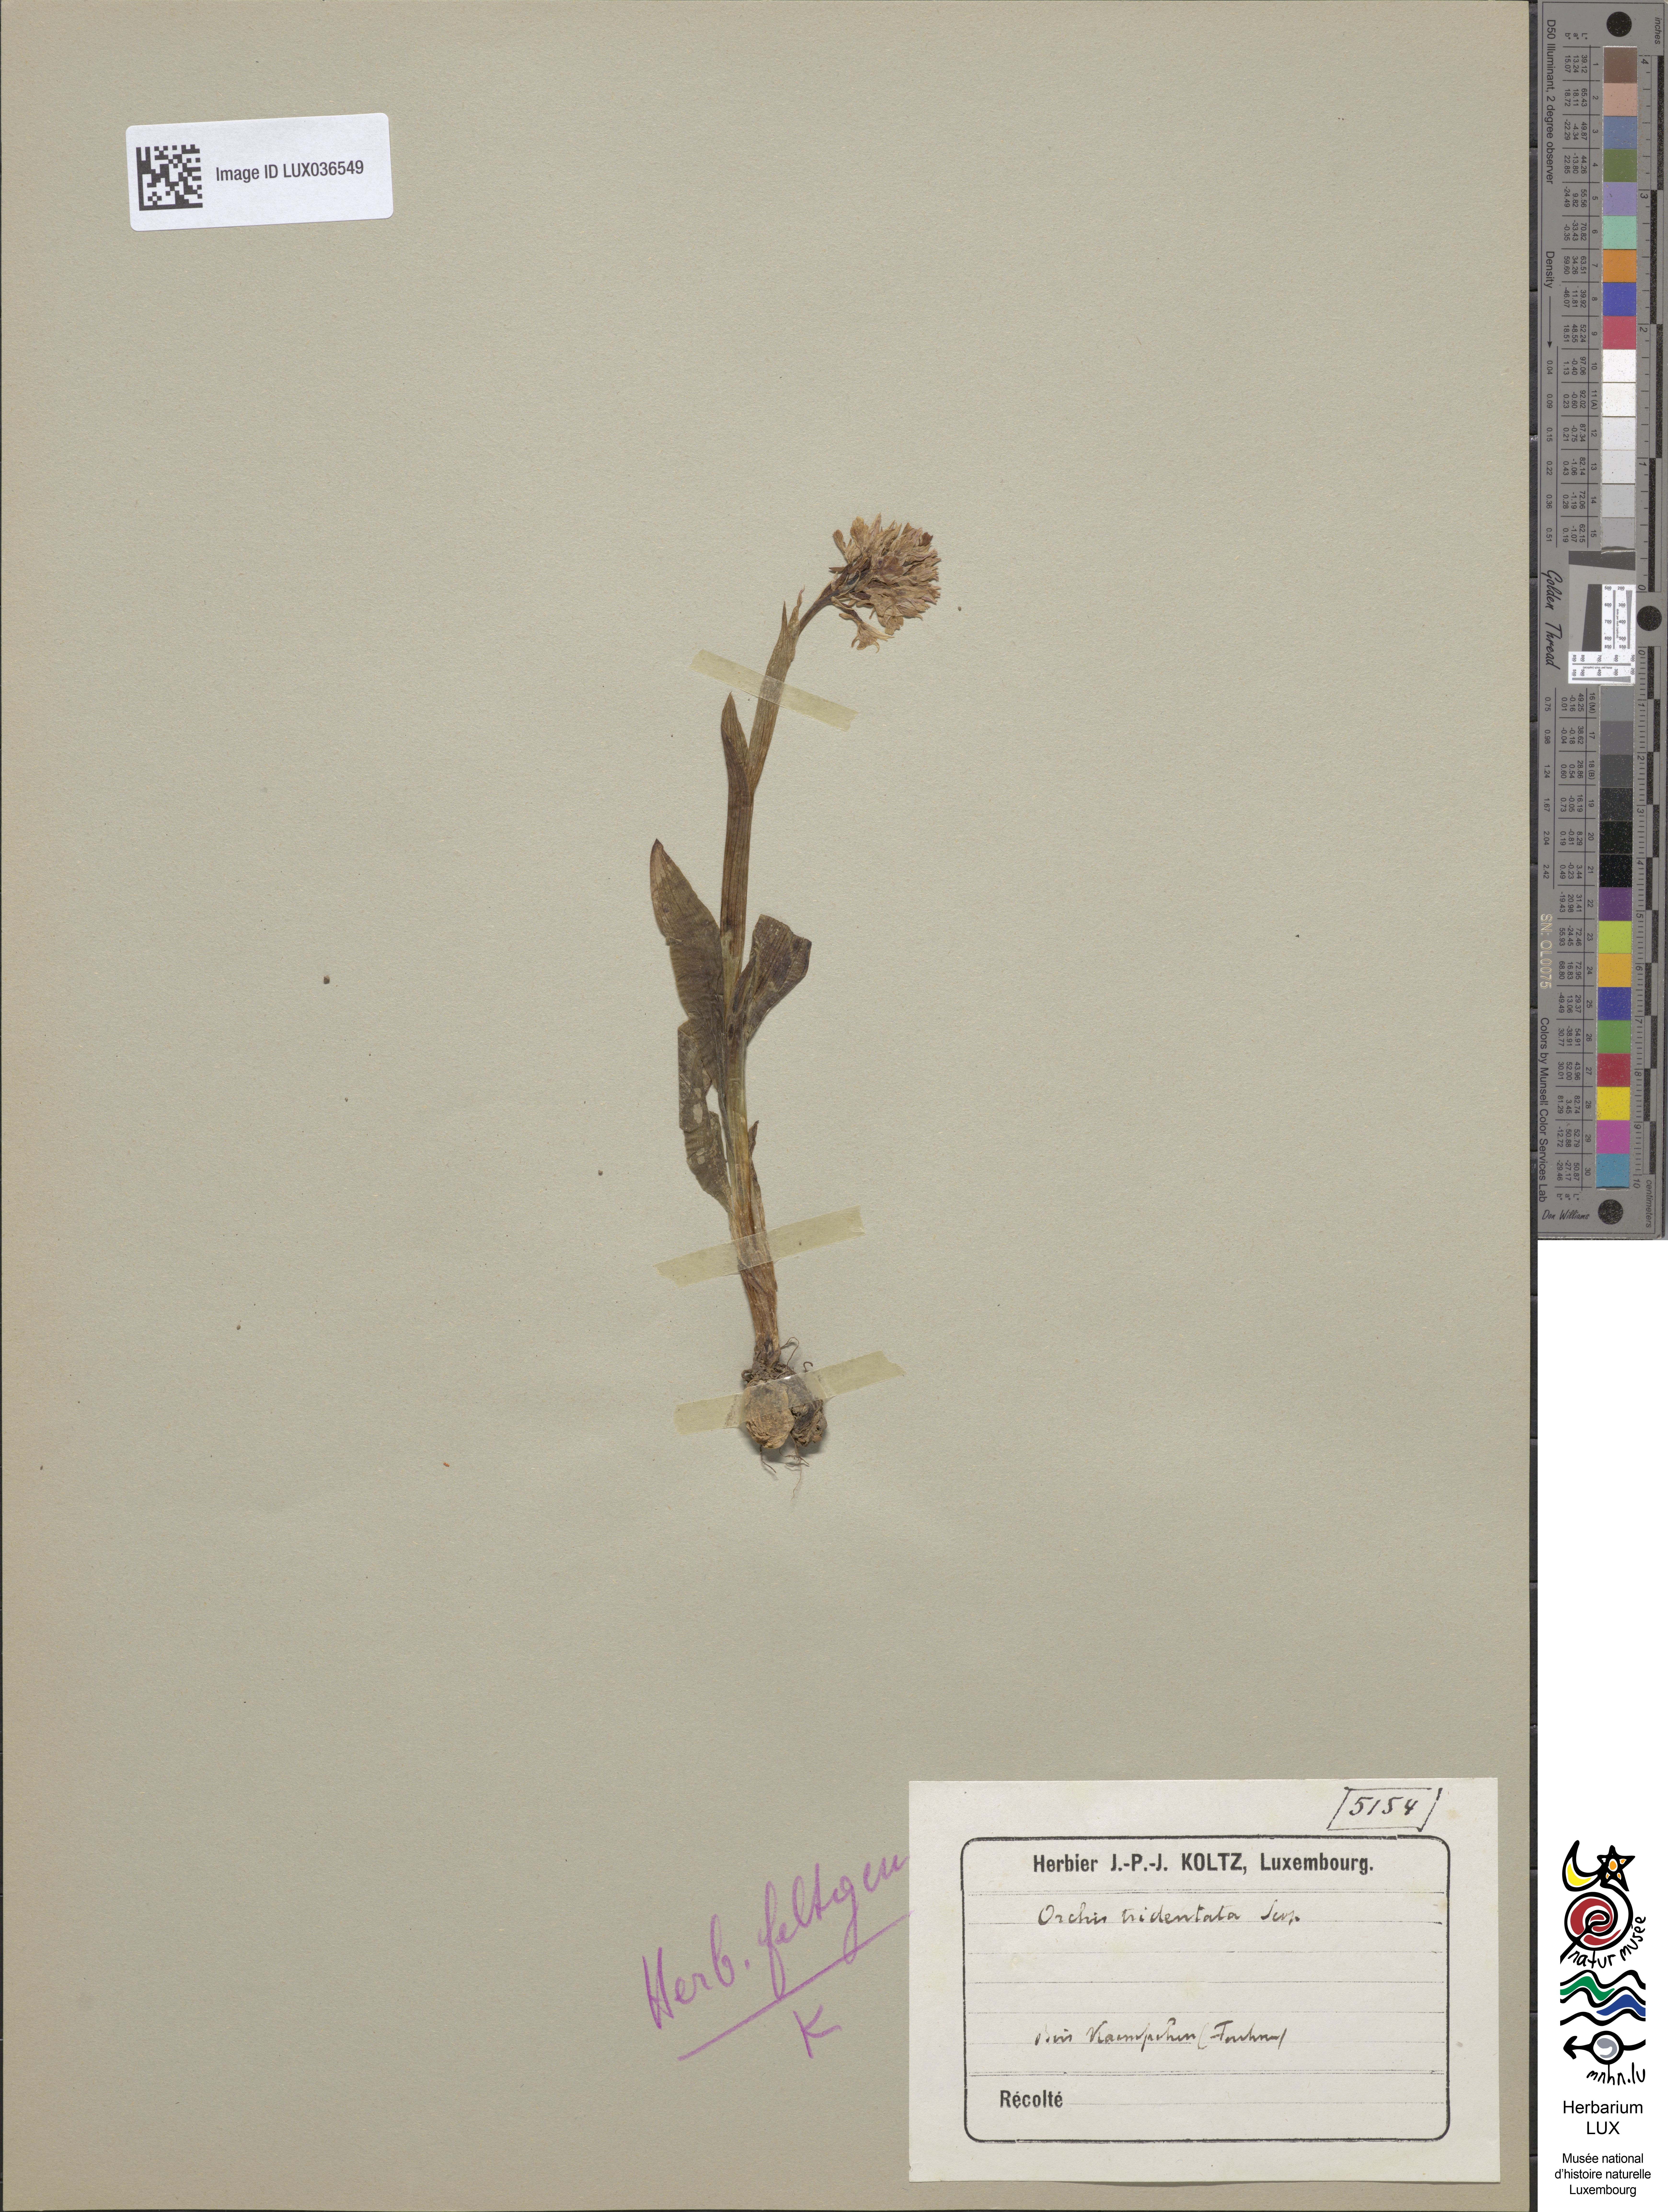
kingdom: Plantae
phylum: Tracheophyta
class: Liliopsida
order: Asparagales
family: Orchidaceae
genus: Neotinea
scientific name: Neotinea tridentata
